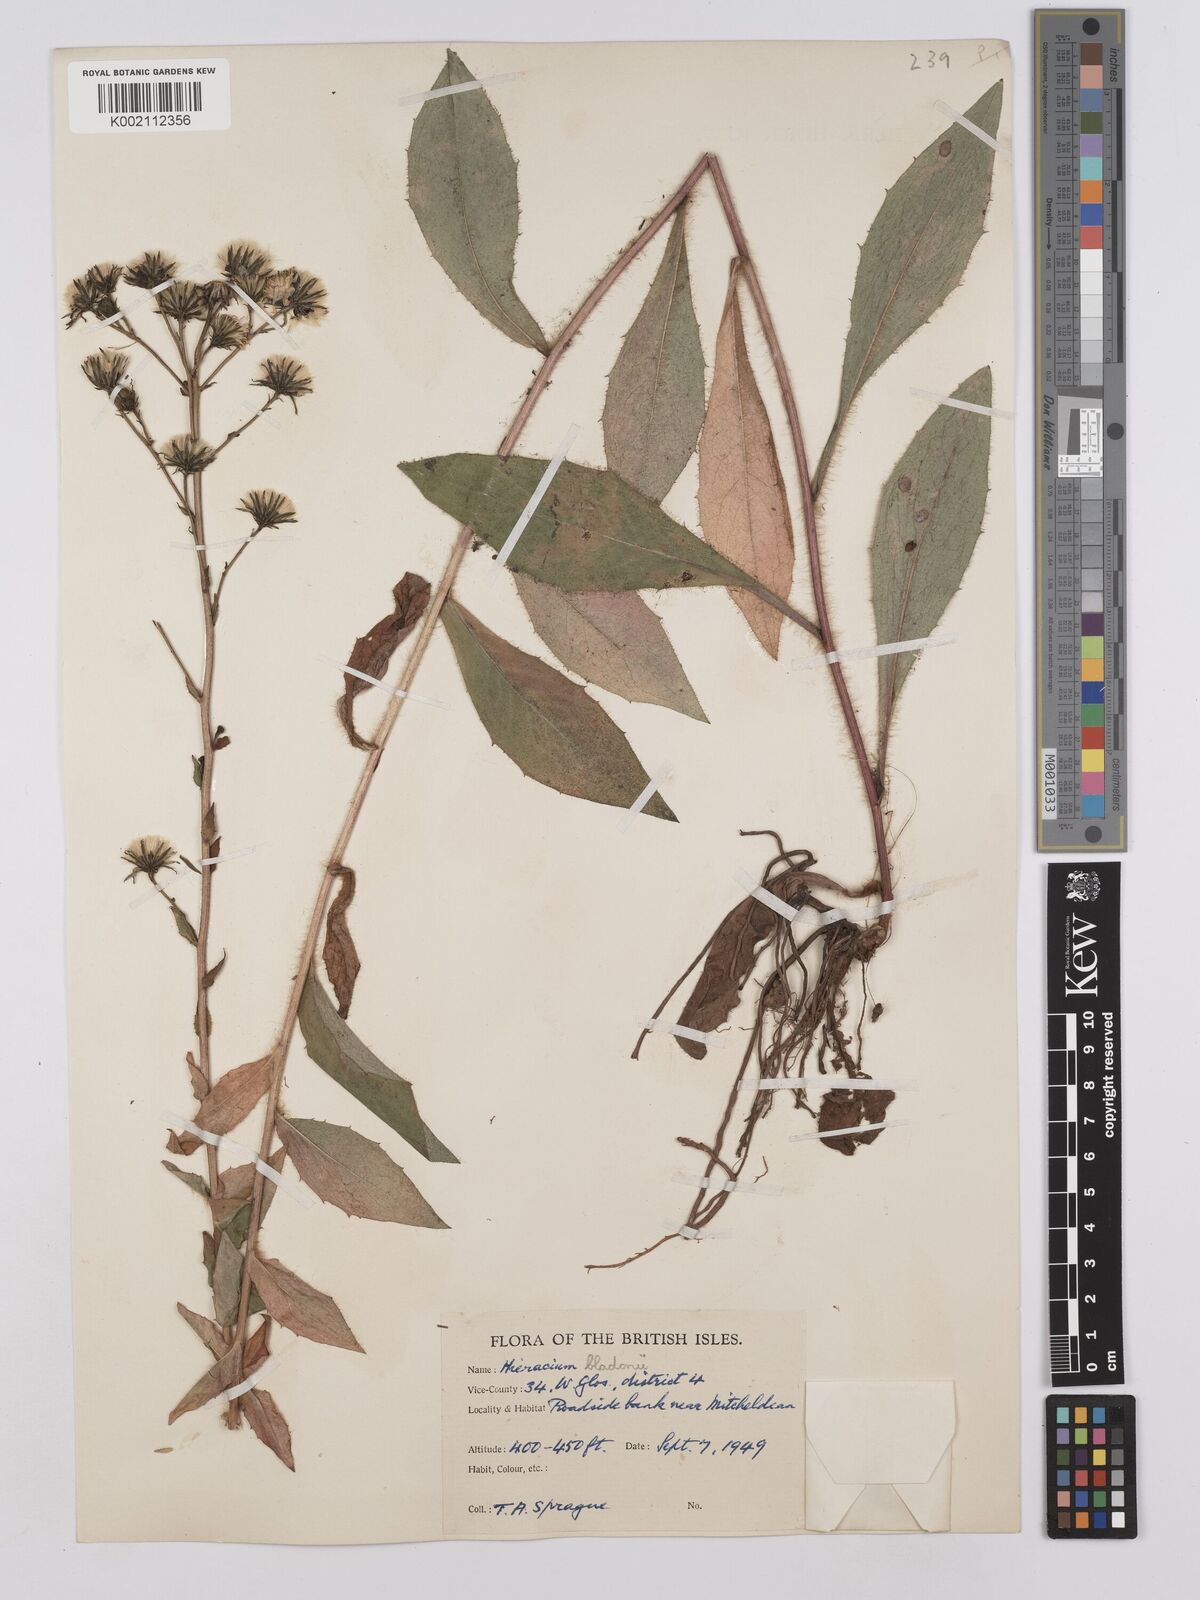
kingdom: Plantae
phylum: Tracheophyta
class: Magnoliopsida
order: Asterales
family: Asteraceae
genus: Hieracium
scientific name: Hieracium sabaudum
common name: New england hawkweed
